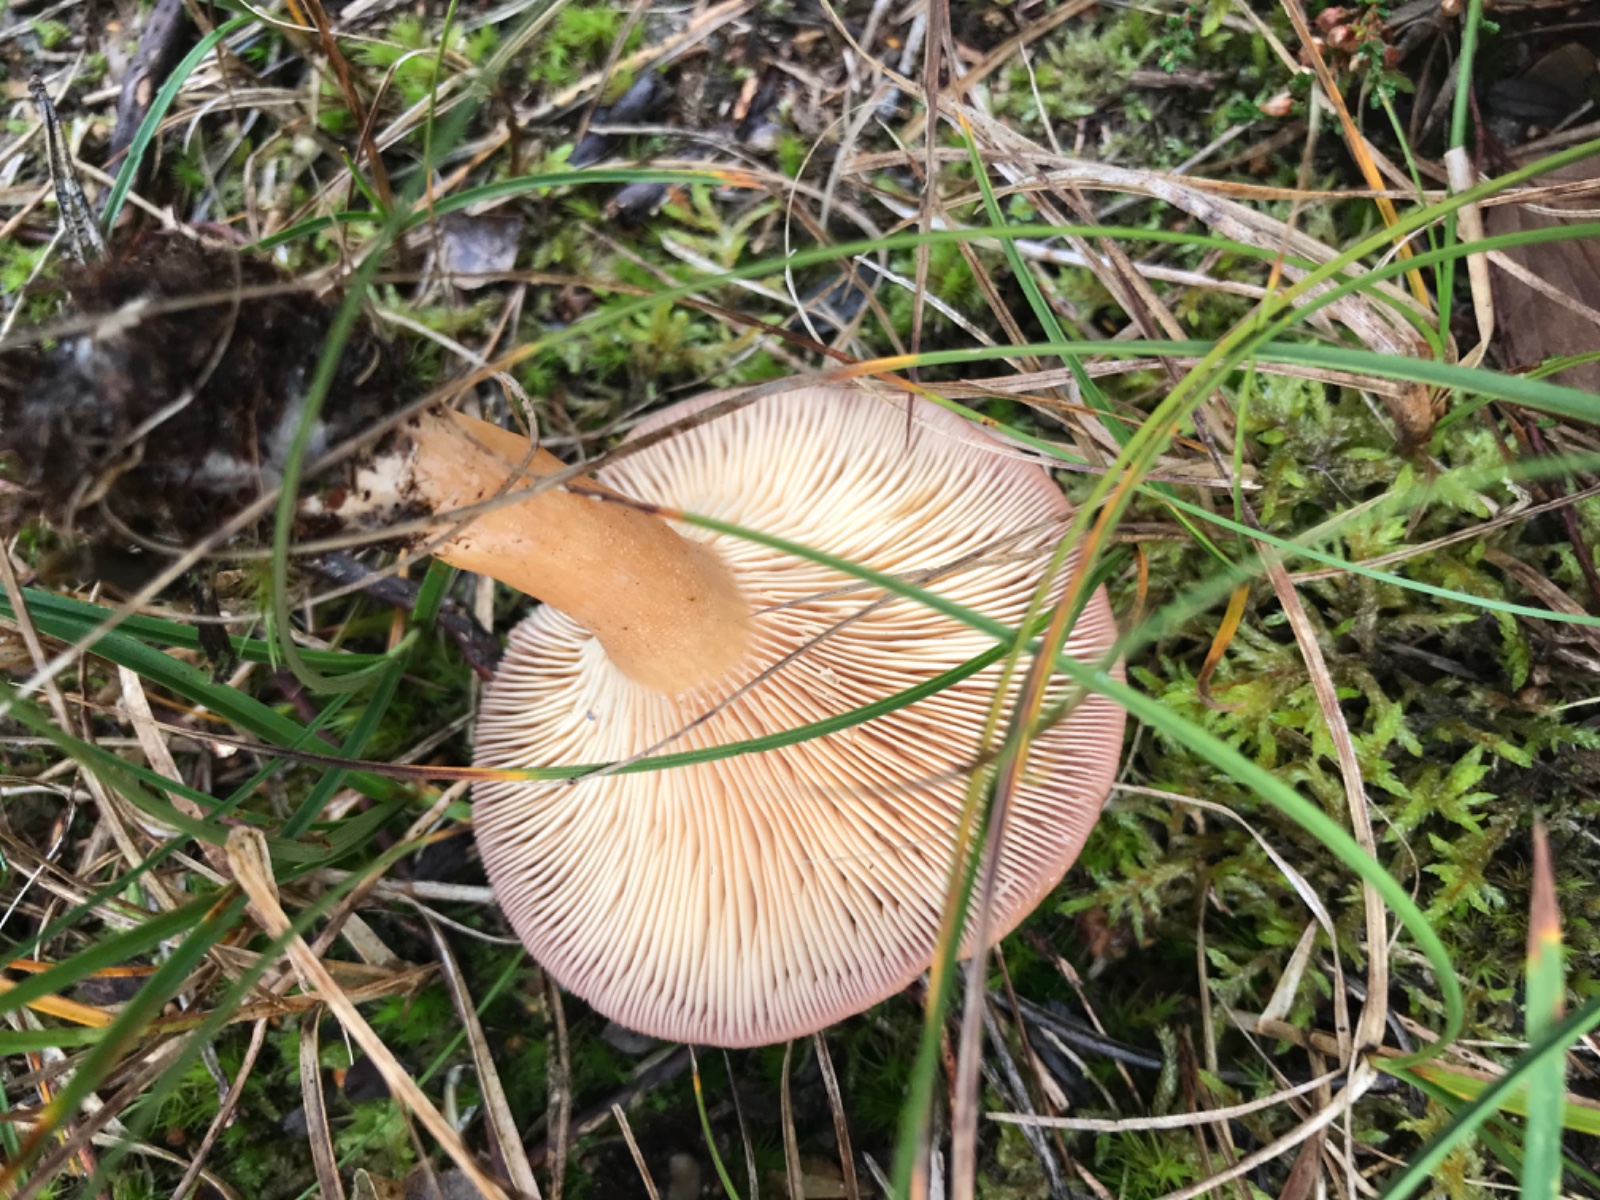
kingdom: Fungi
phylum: Basidiomycota
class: Agaricomycetes
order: Russulales
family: Russulaceae
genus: Lactarius
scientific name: Lactarius helvus
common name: mose-mælkehat
